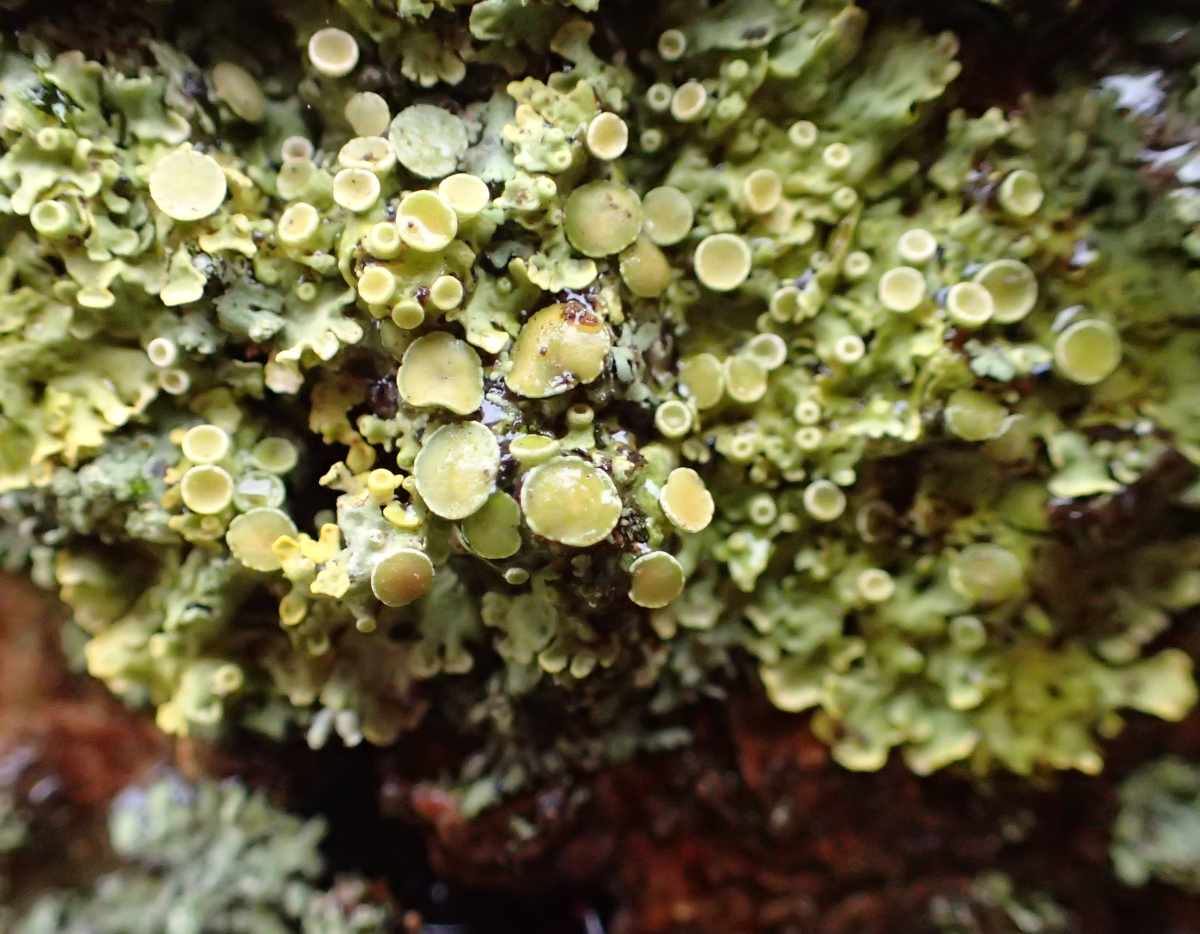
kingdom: Fungi
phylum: Ascomycota
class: Lecanoromycetes
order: Teloschistales
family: Teloschistaceae
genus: Xanthoria
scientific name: Xanthoria parietina
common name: almindelig væggelav
